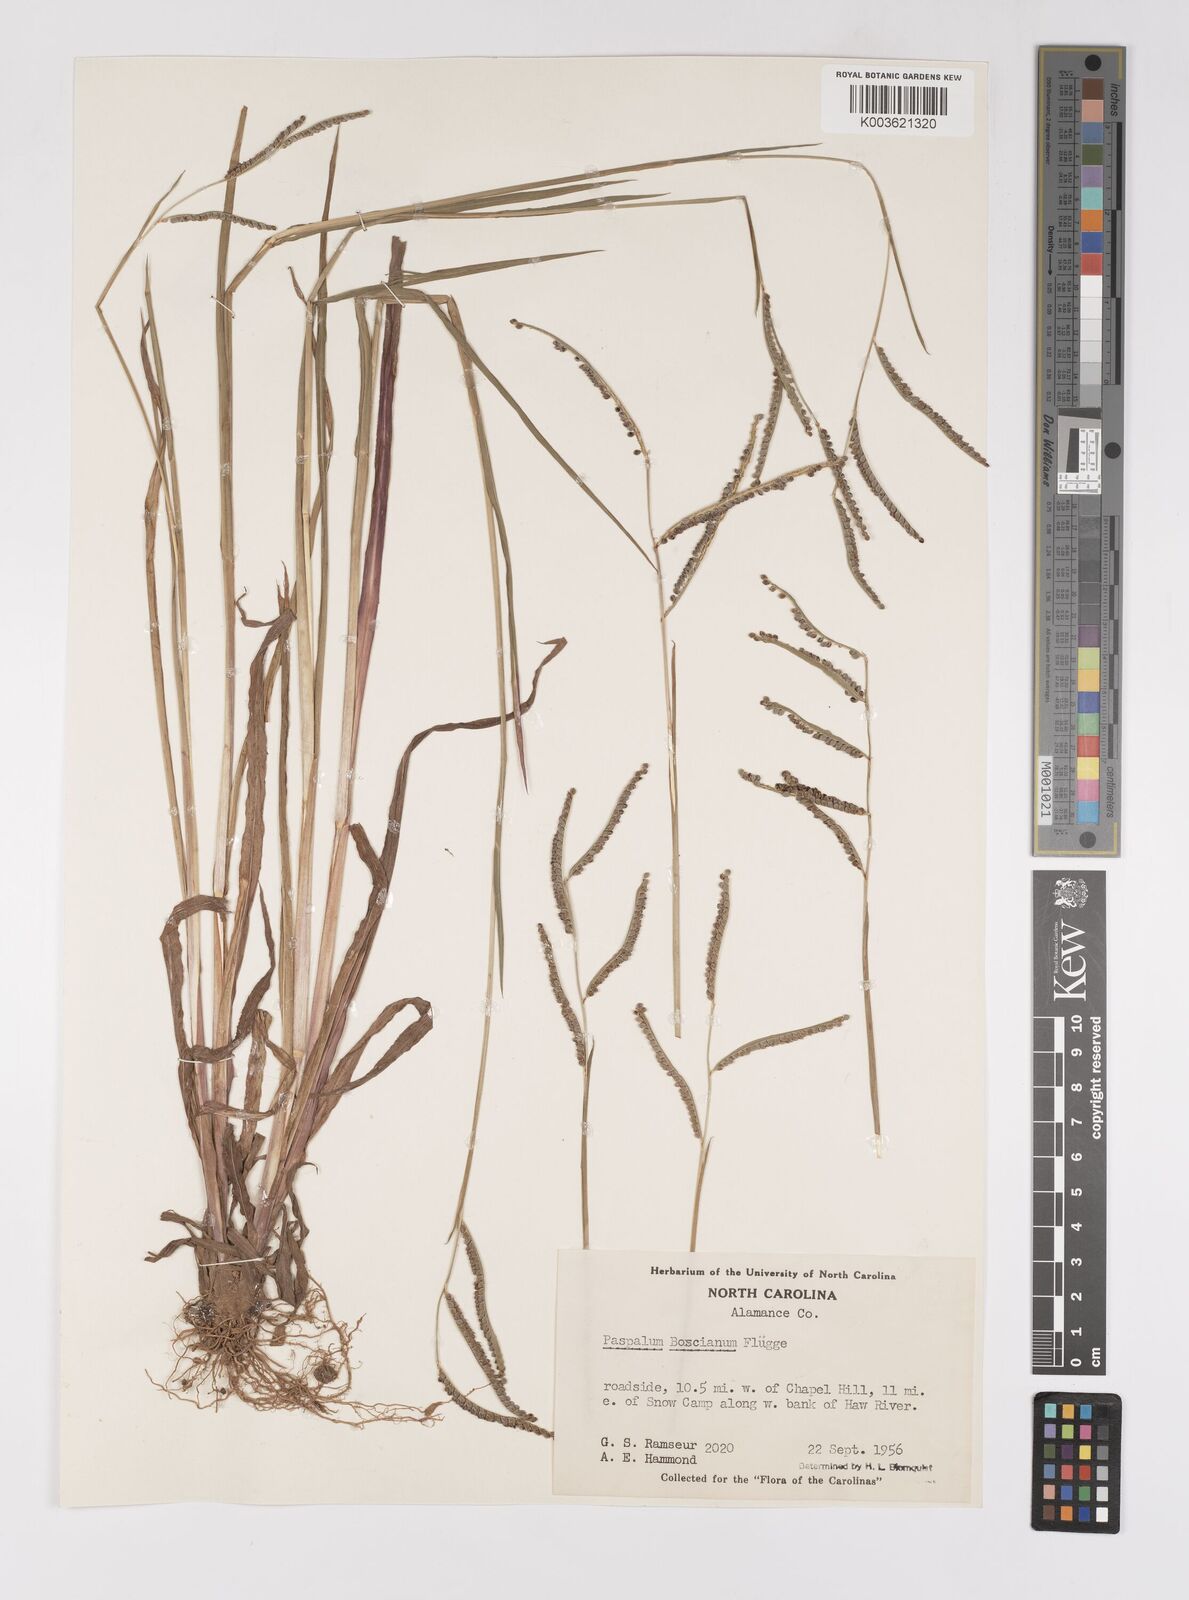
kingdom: Plantae
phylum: Tracheophyta
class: Liliopsida
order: Poales
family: Poaceae
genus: Paspalum
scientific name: Paspalum scrobiculatum
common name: Kodo millet
